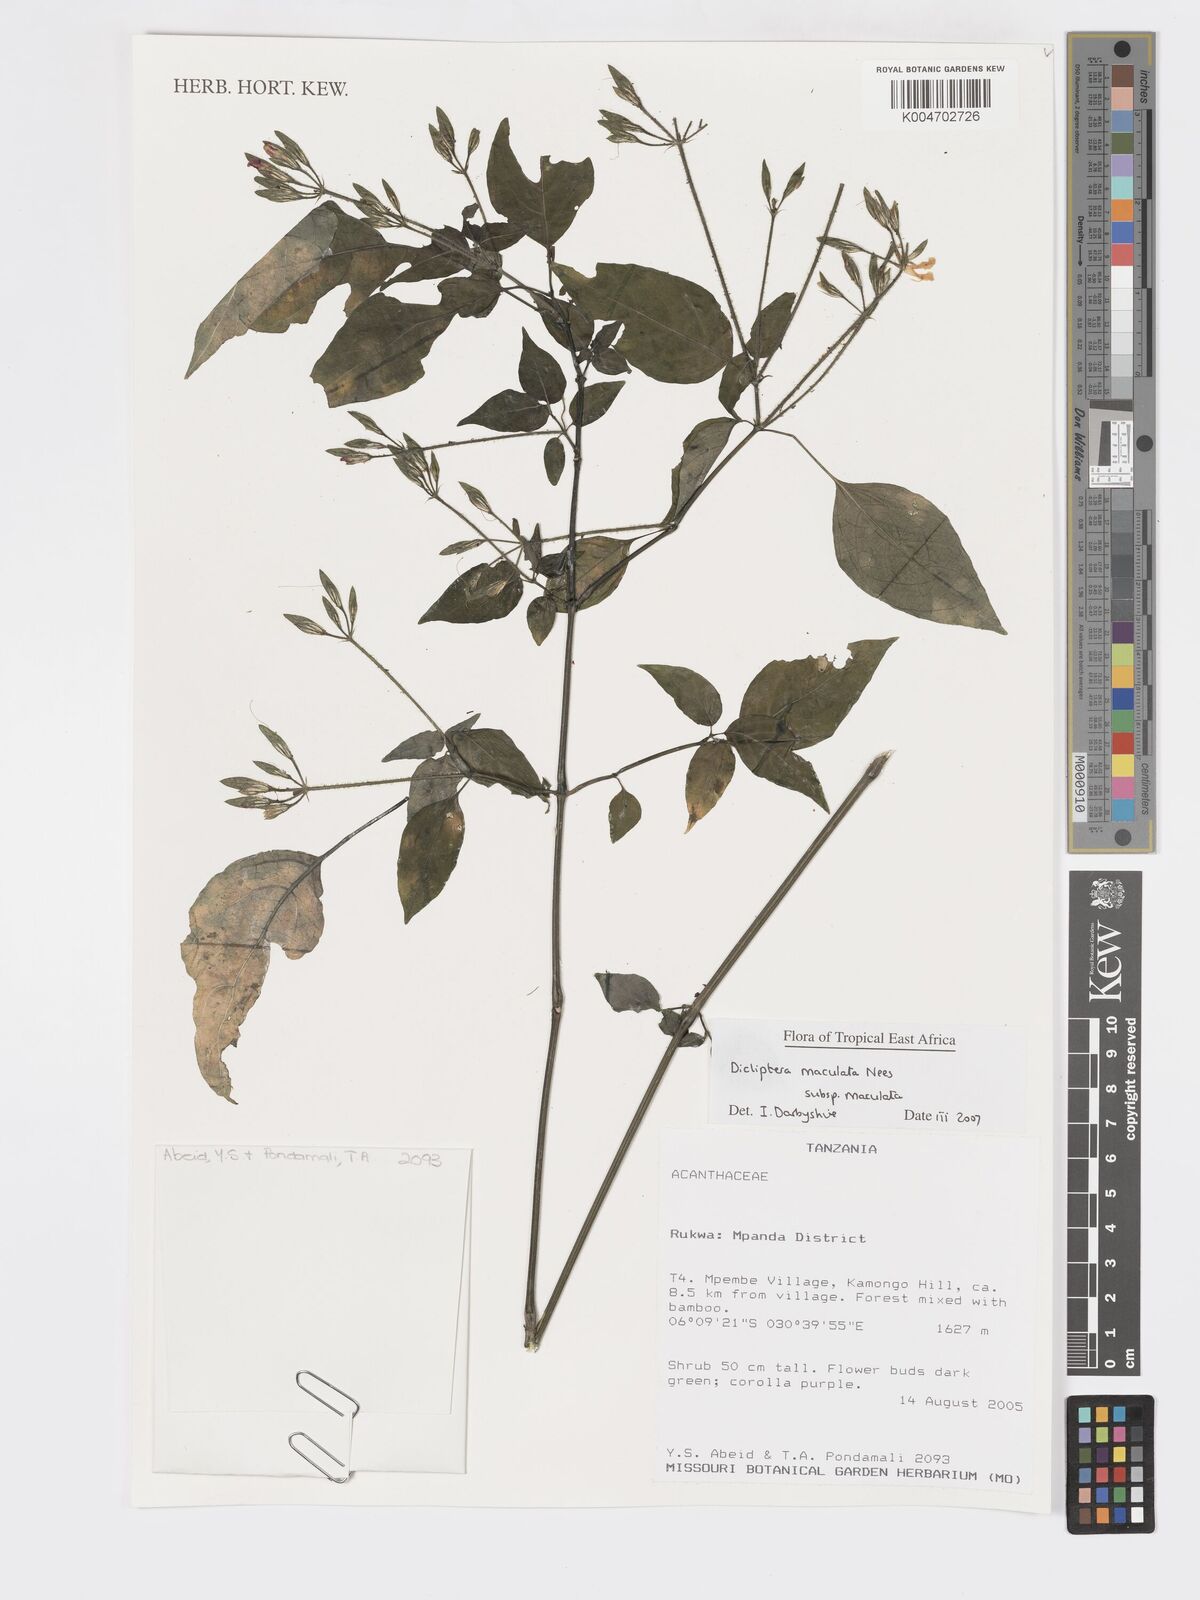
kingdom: Plantae
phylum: Tracheophyta
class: Magnoliopsida
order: Lamiales
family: Acanthaceae
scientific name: Acanthaceae
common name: Acanthaceae
